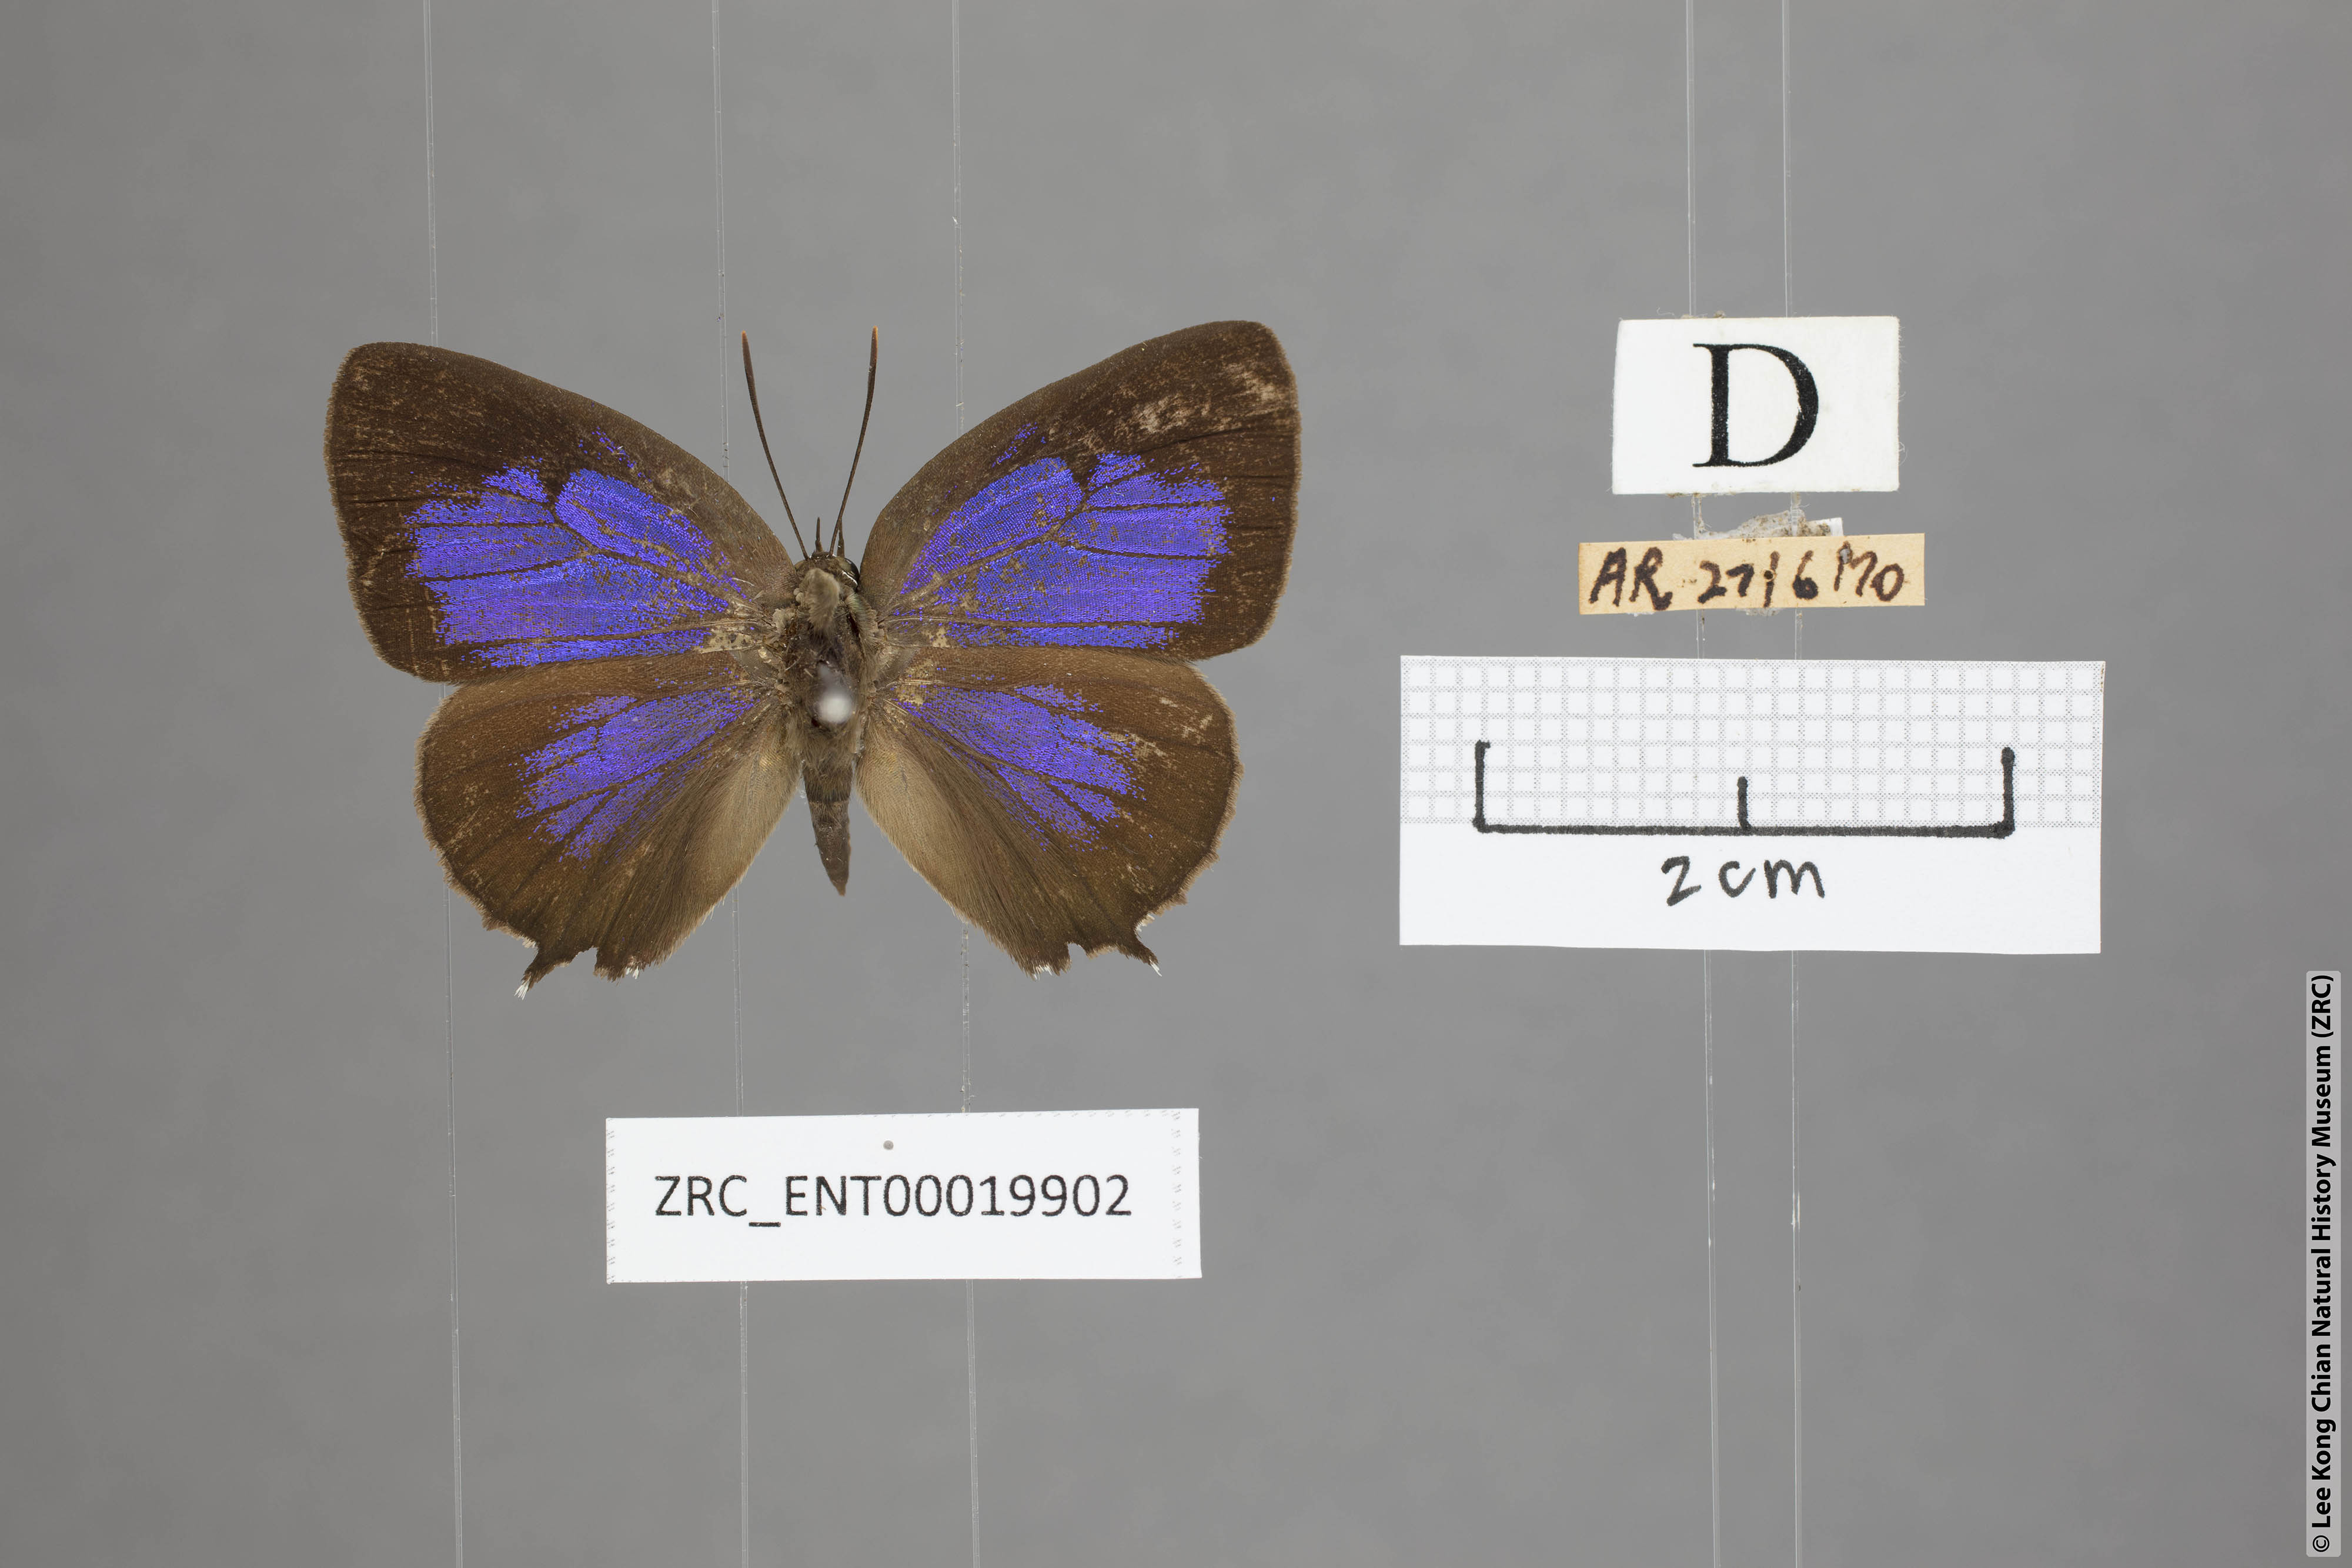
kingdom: Animalia
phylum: Arthropoda
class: Insecta
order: Lepidoptera
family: Lycaenidae
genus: Arhopala
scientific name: Arhopala trogon
